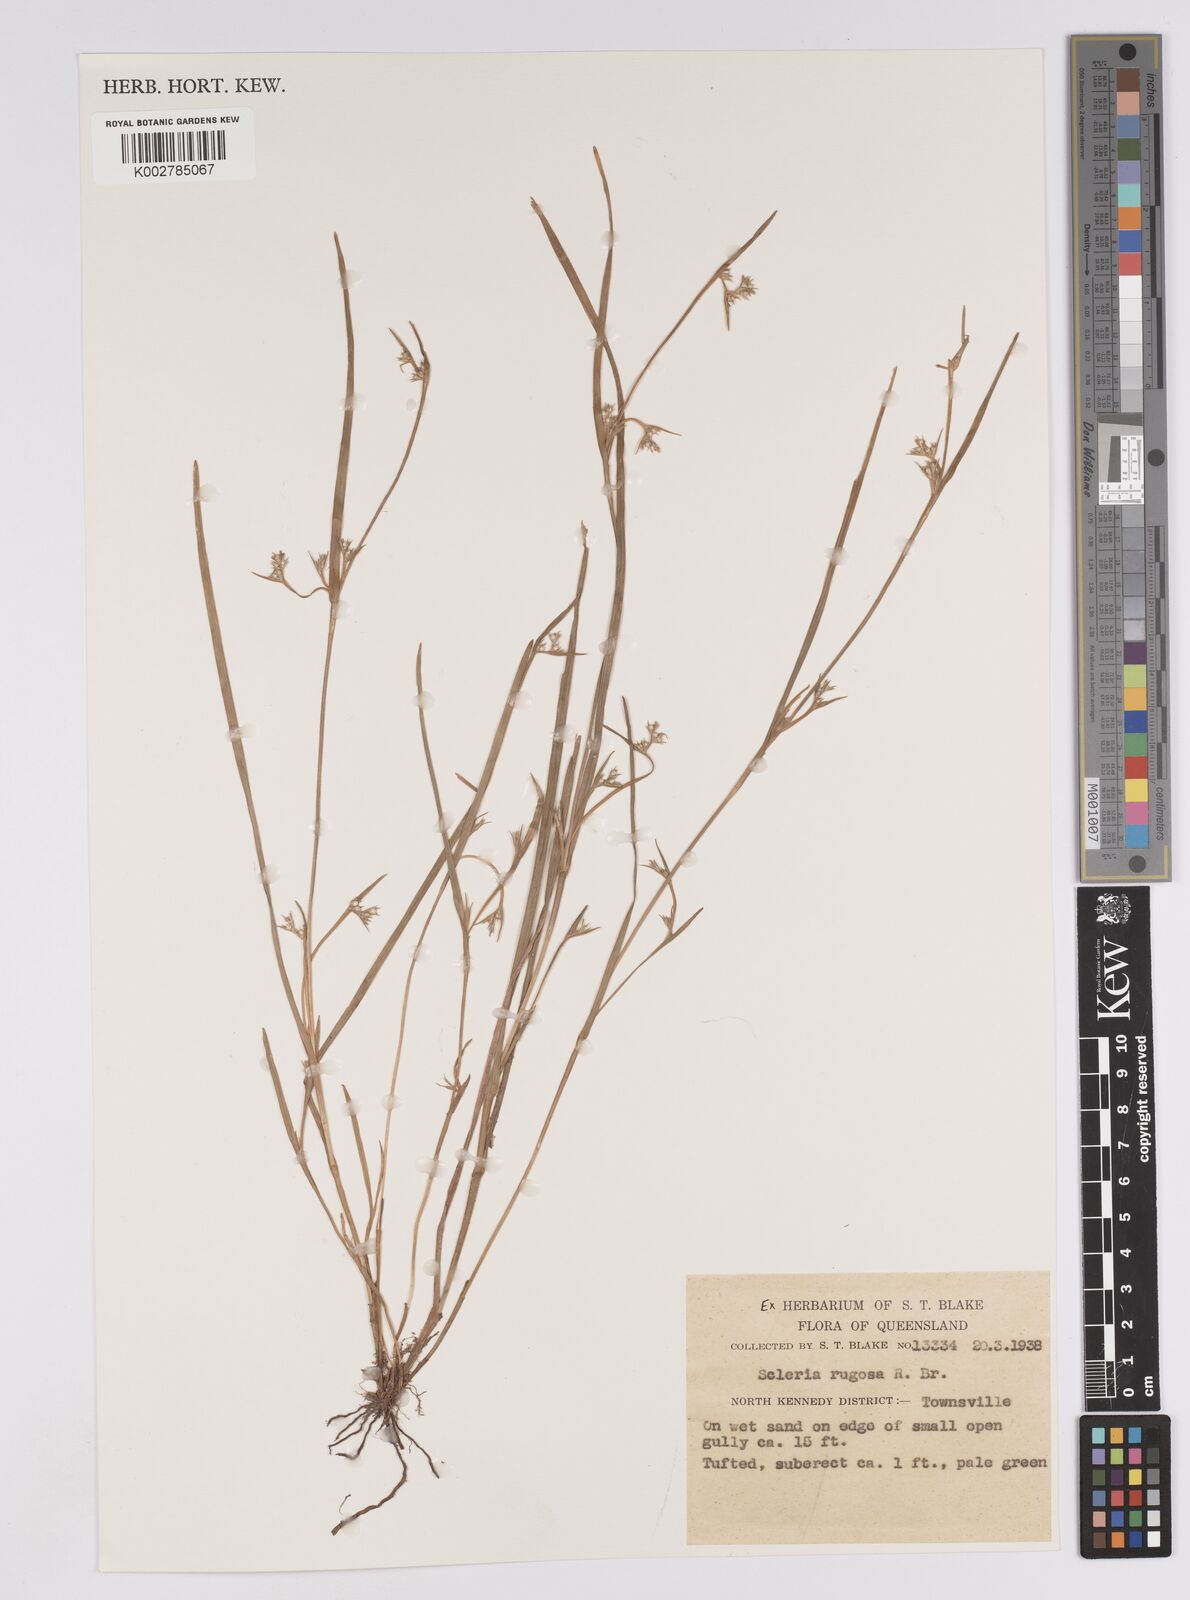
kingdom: Plantae
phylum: Tracheophyta
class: Liliopsida
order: Poales
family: Cyperaceae
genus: Scleria
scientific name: Scleria rugosa
